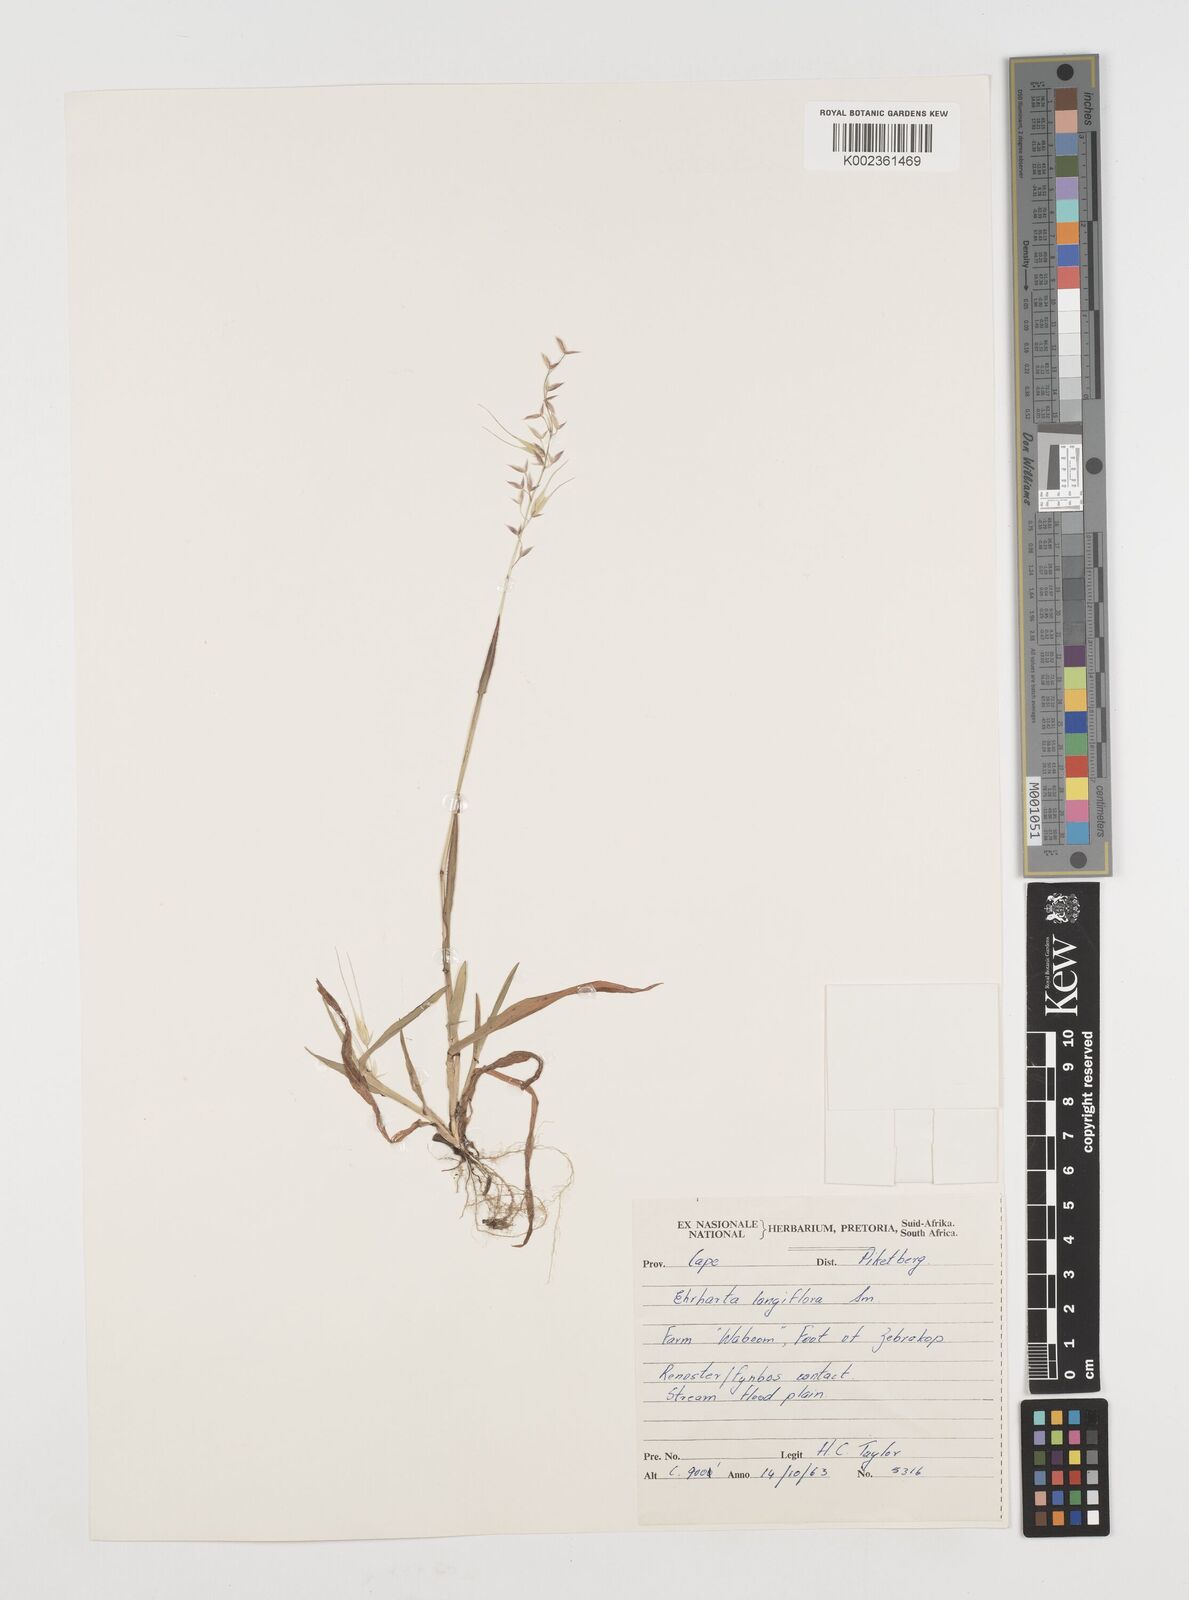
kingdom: Plantae
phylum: Tracheophyta
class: Liliopsida
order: Poales
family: Poaceae
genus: Ehrharta
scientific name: Ehrharta longiflora
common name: Longflowered veldtgrass
